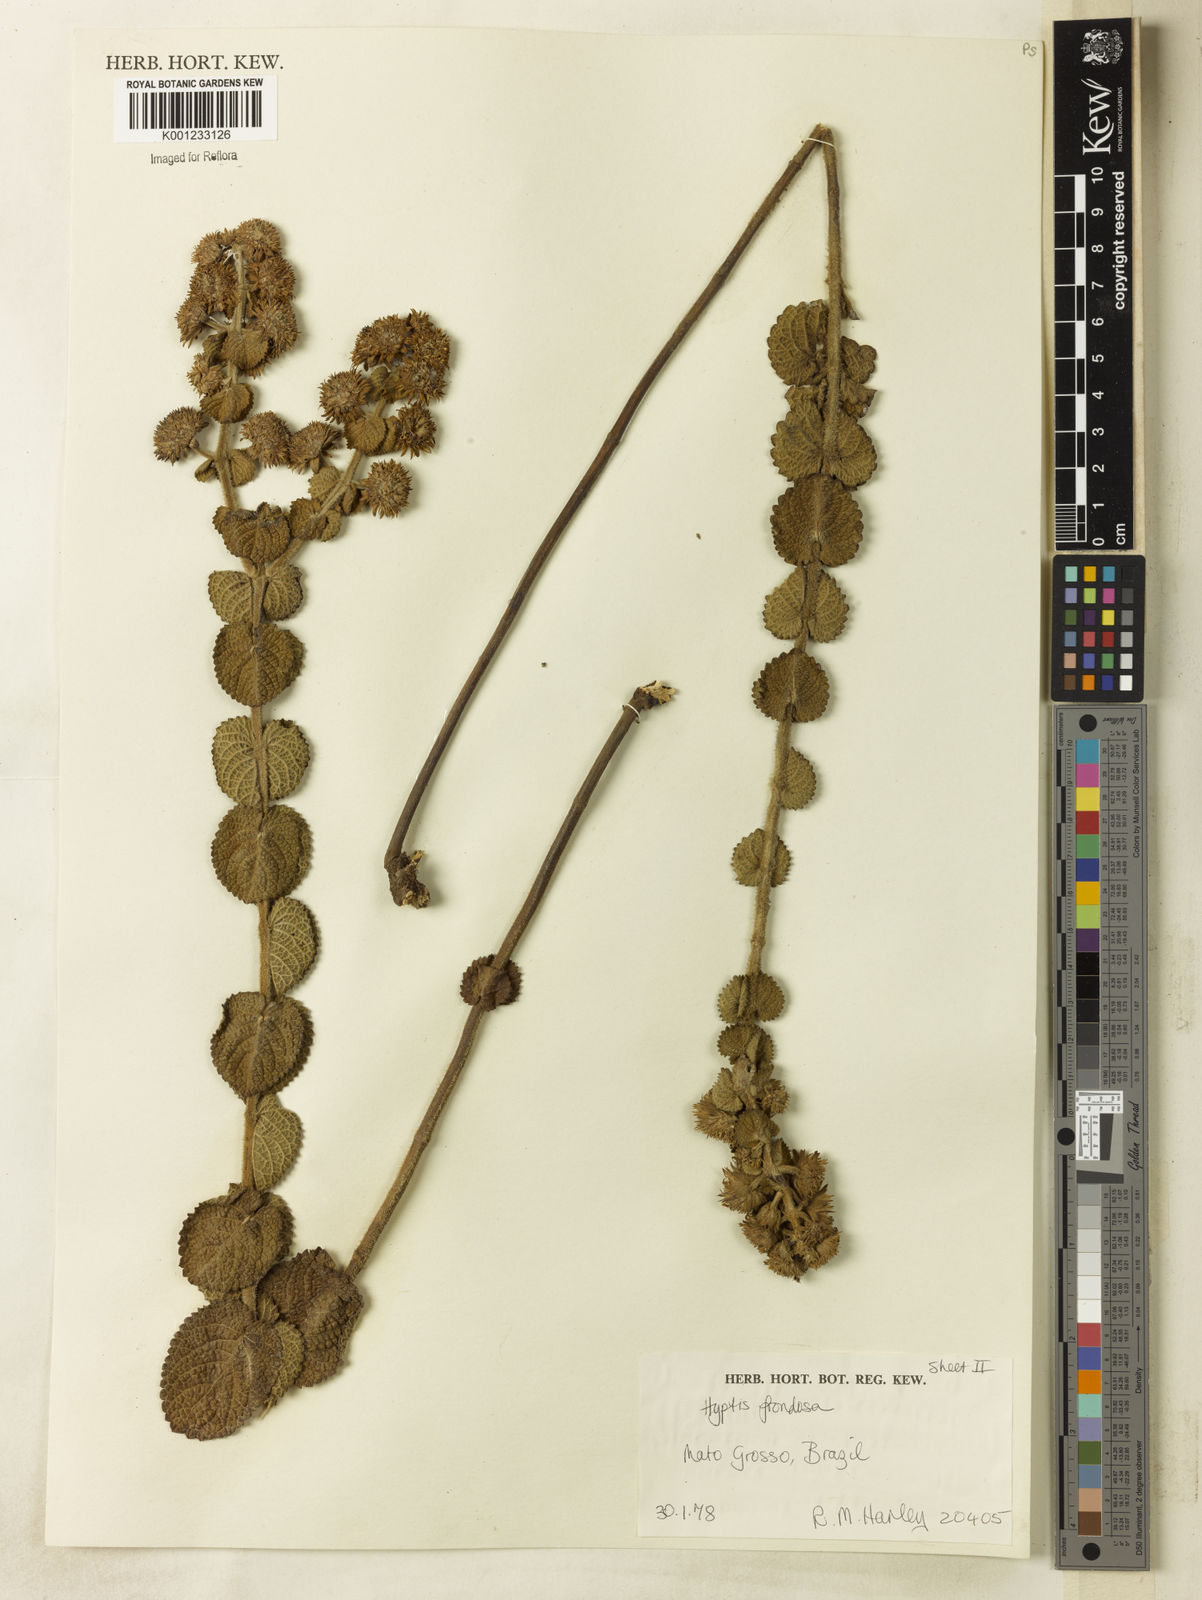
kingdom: Plantae
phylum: Tracheophyta
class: Magnoliopsida
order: Lamiales
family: Lamiaceae
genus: Hyptis
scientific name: Hyptis frondosa
